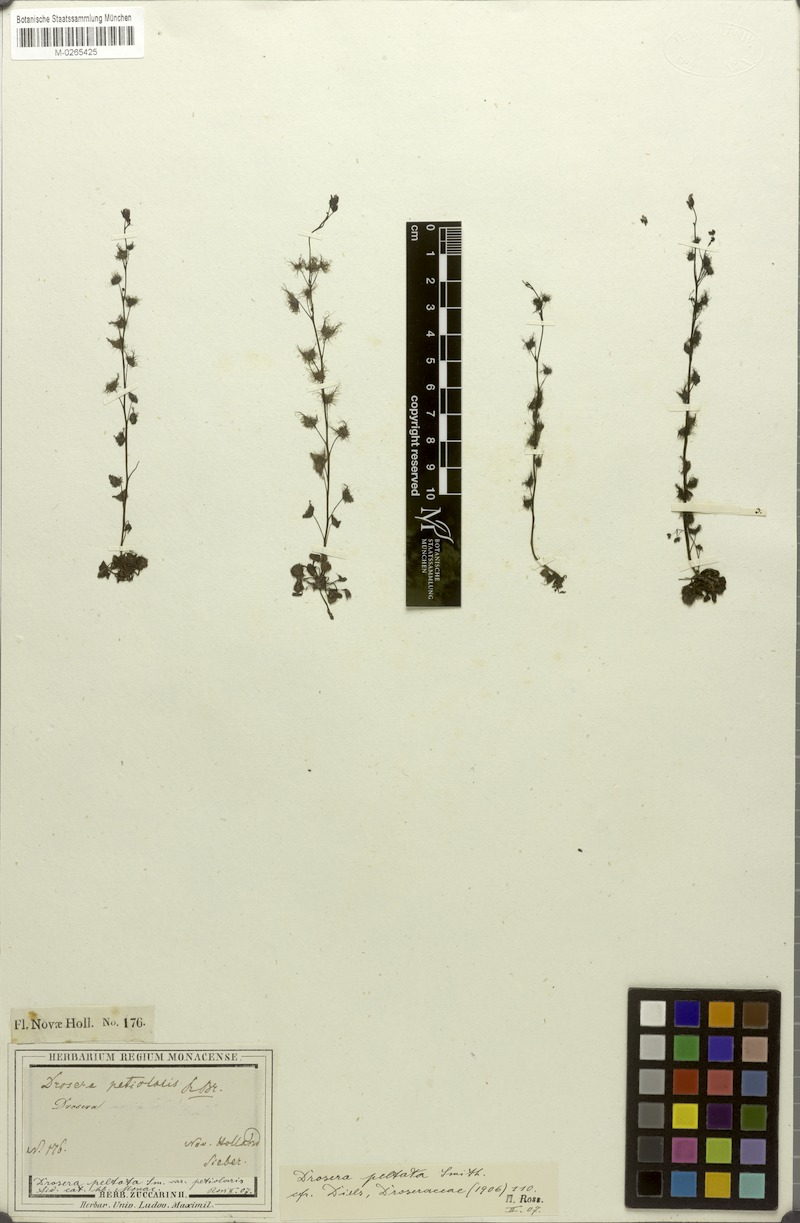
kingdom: Plantae
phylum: Tracheophyta
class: Magnoliopsida
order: Caryophyllales
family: Droseraceae
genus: Drosera
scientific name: Drosera peltata
